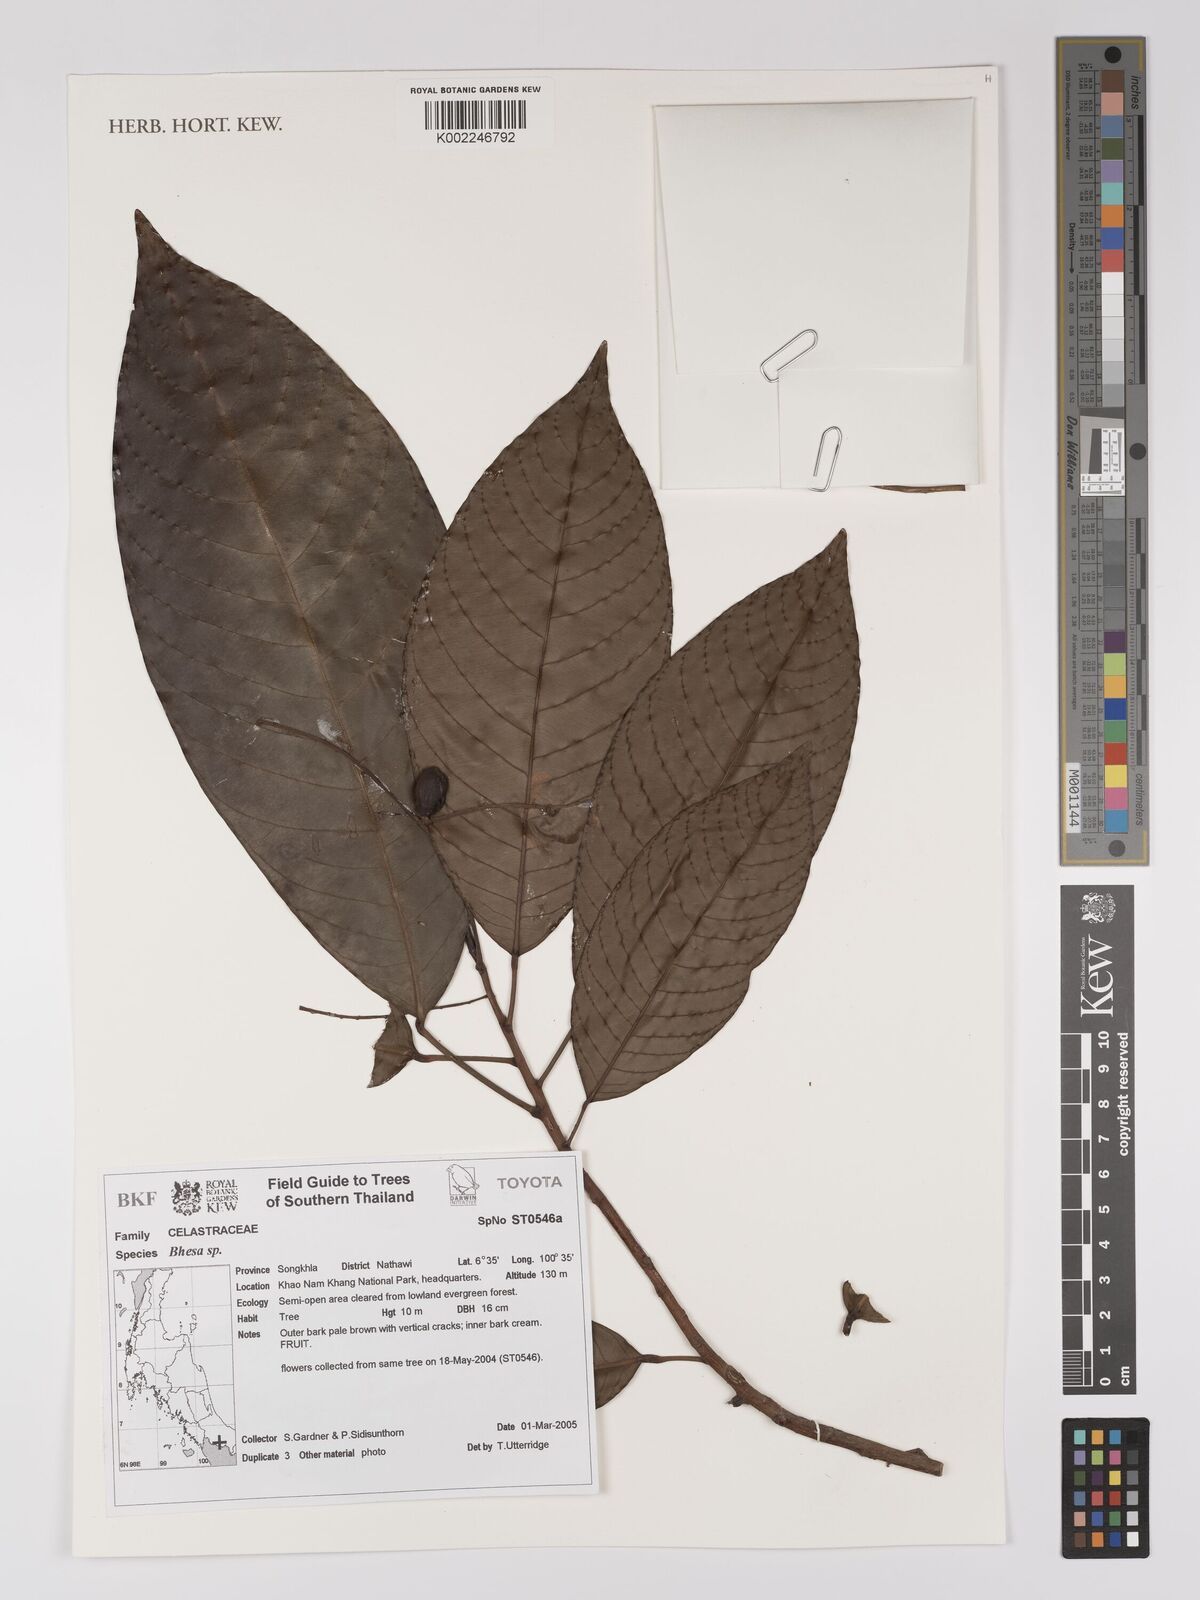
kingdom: Plantae
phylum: Tracheophyta
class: Magnoliopsida
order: Malpighiales
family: Centroplacaceae
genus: Bhesa
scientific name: Bhesa
